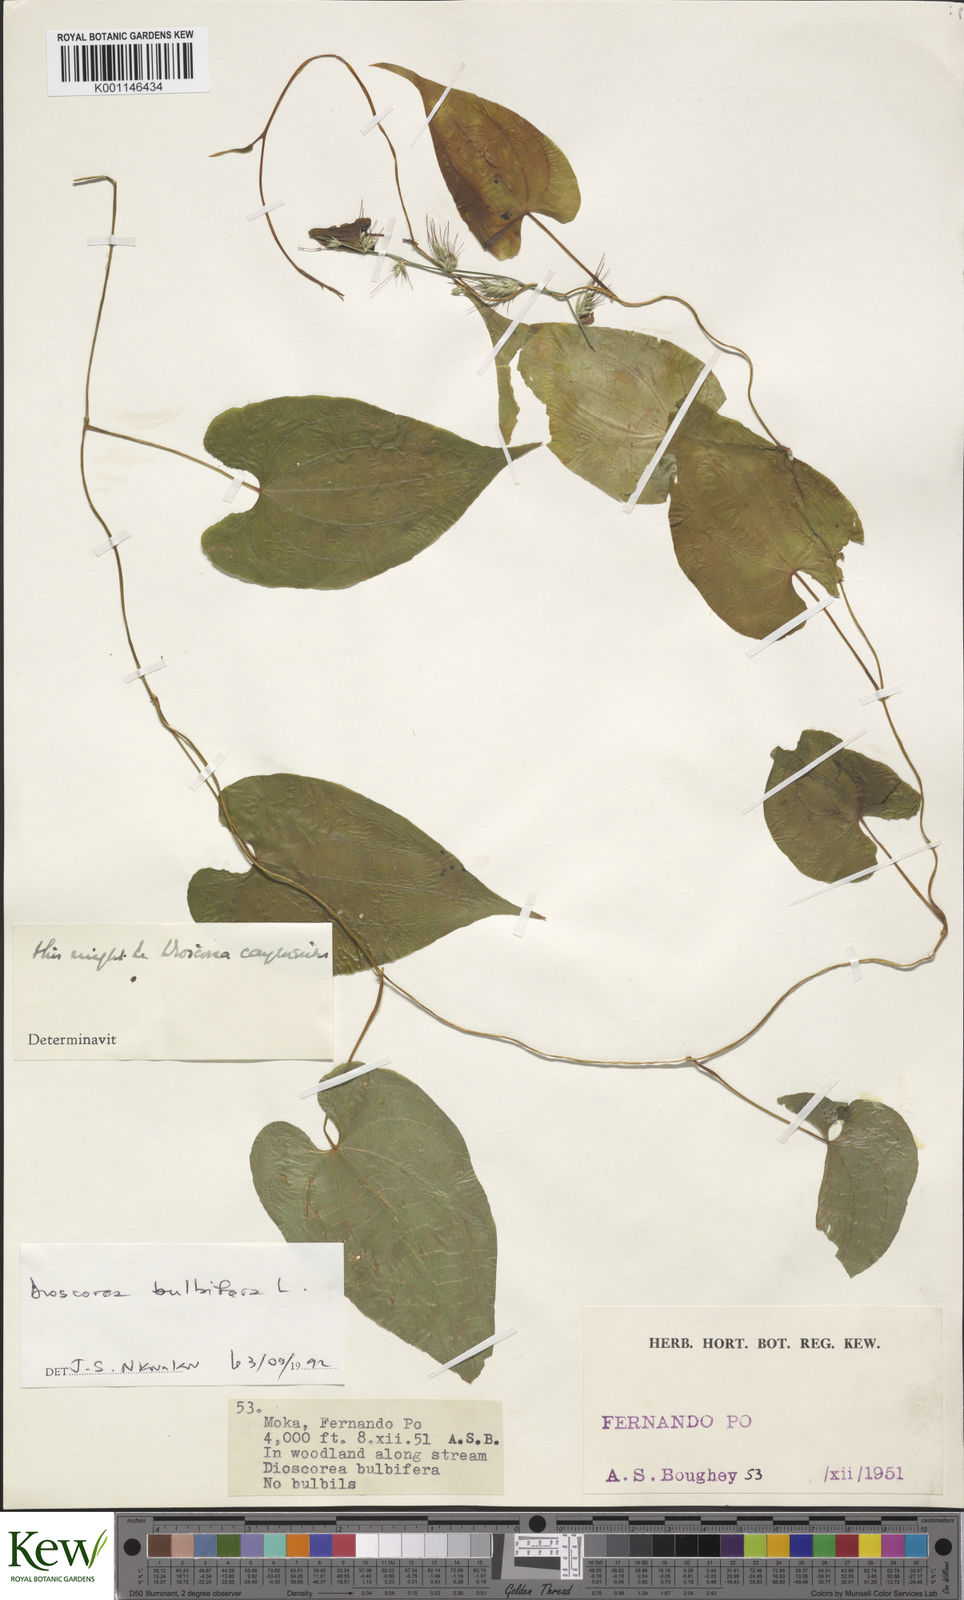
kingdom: Plantae
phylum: Tracheophyta
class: Liliopsida
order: Dioscoreales
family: Dioscoreaceae
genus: Dioscorea
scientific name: Dioscorea praehensilis
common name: Bush yam
